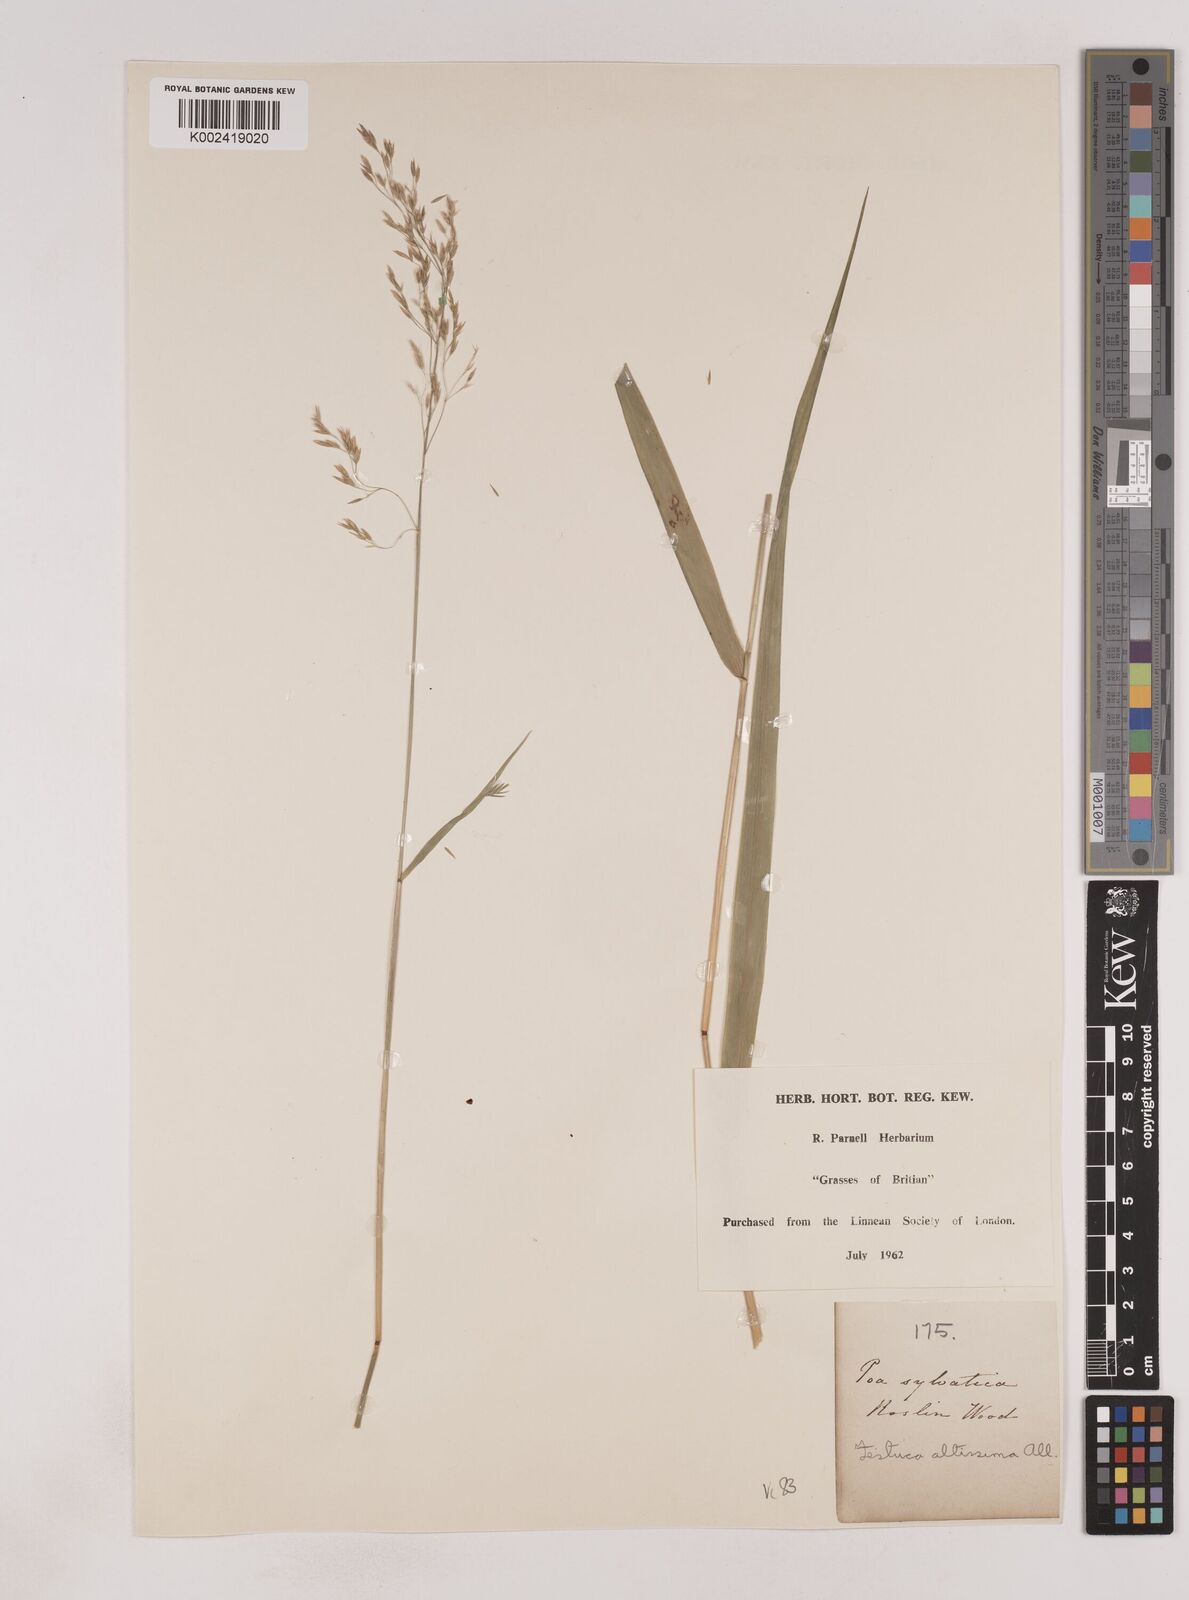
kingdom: Plantae
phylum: Tracheophyta
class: Liliopsida
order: Poales
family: Poaceae
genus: Festuca
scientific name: Festuca drymeja
